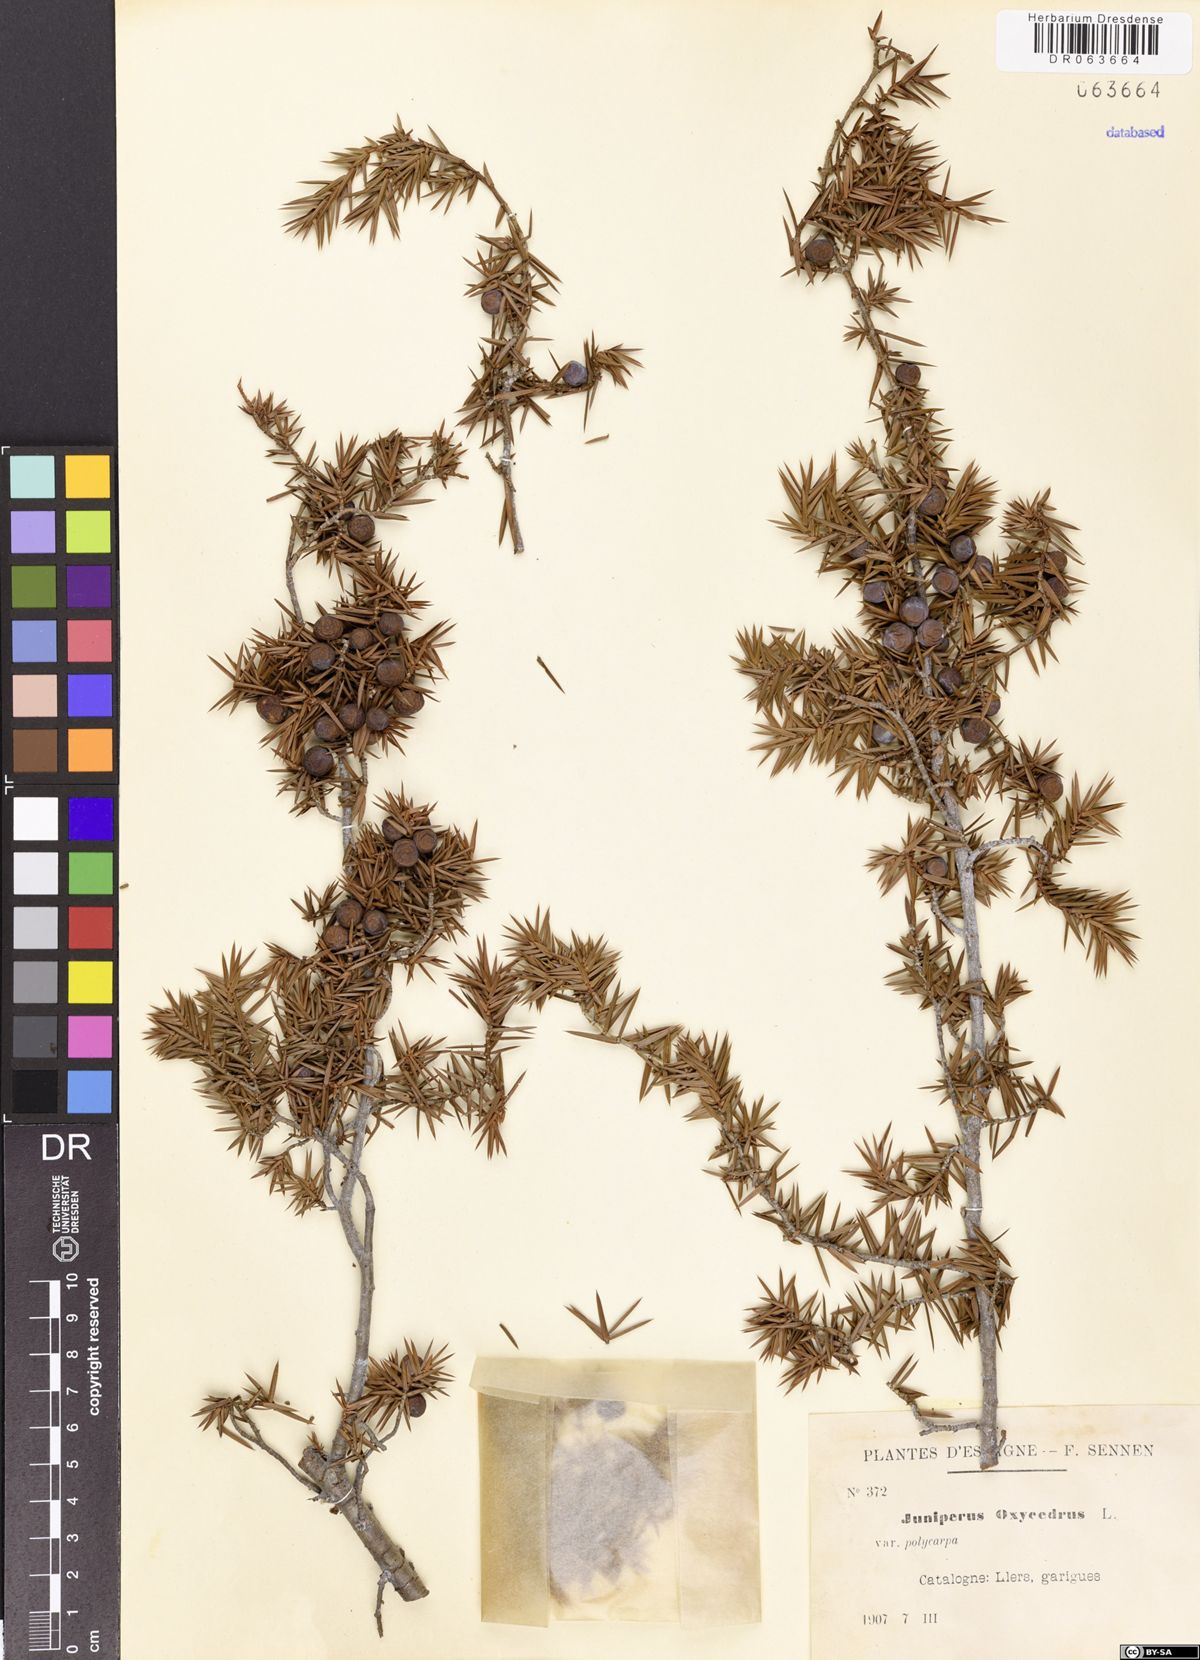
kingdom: Plantae
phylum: Tracheophyta
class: Pinopsida
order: Pinales
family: Cupressaceae
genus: Juniperus
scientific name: Juniperus oxycedrus
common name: Prickly juniper
